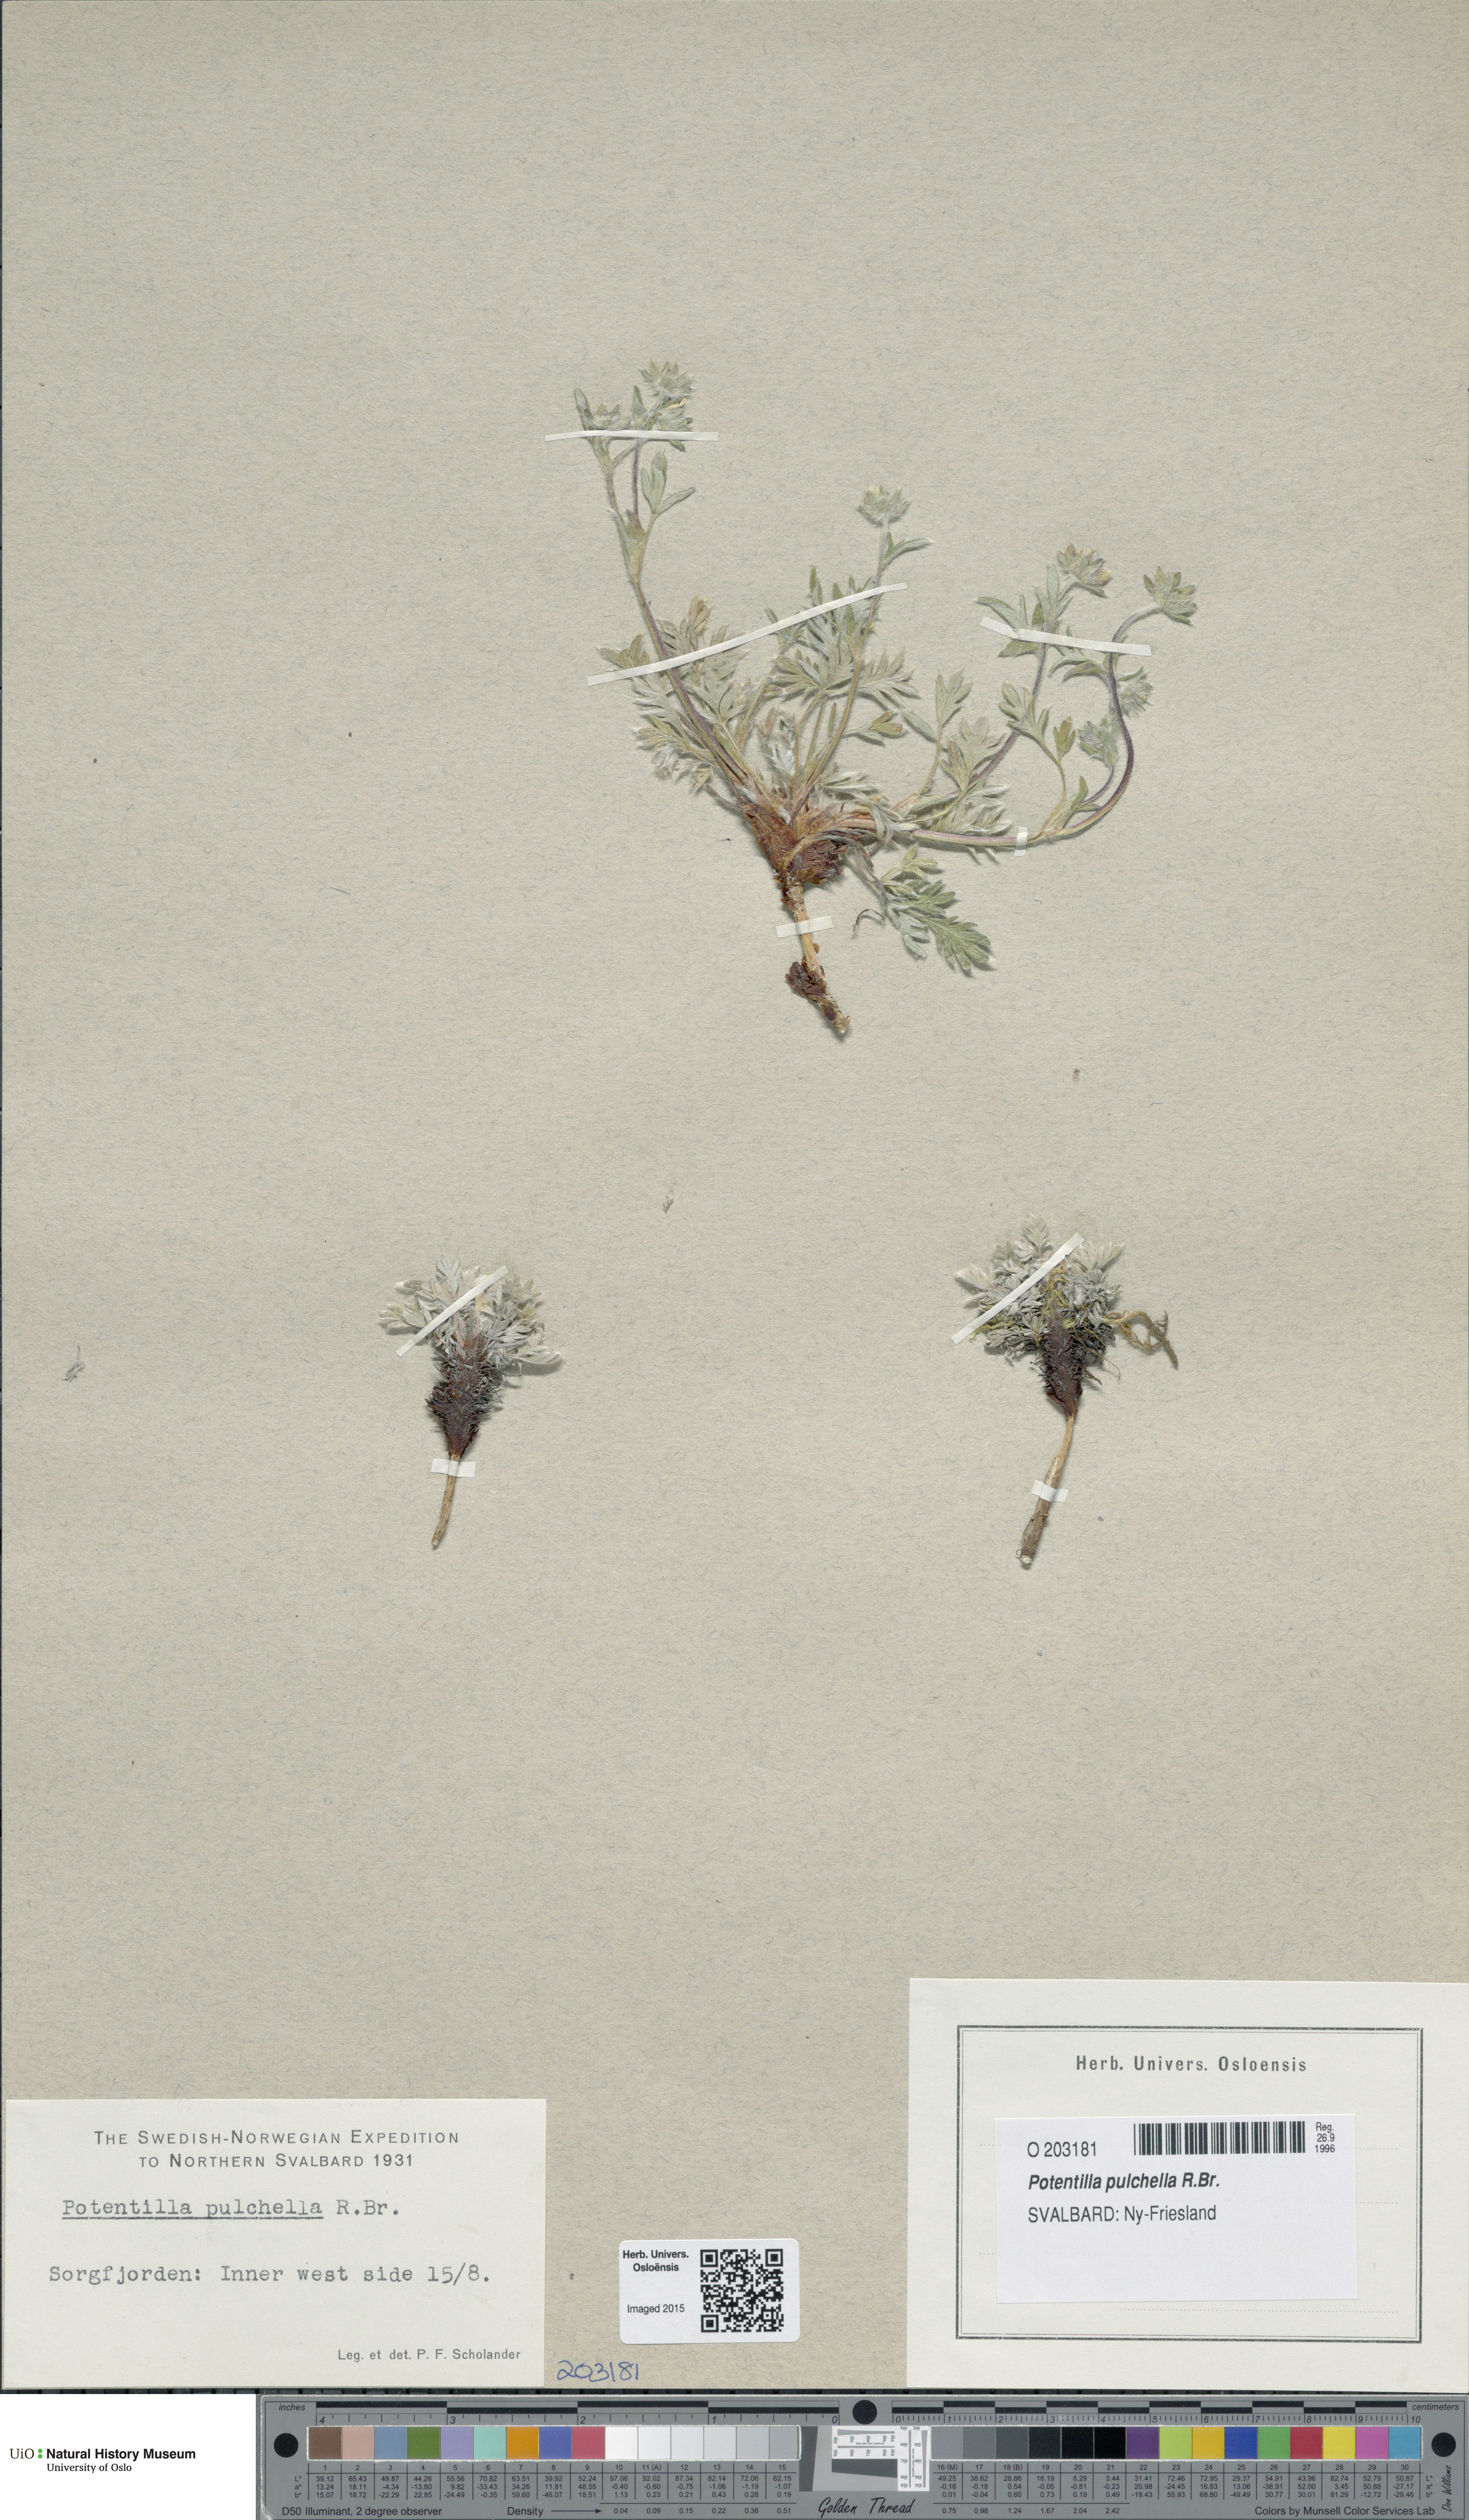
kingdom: Plantae
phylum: Tracheophyta
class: Magnoliopsida
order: Rosales
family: Rosaceae
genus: Potentilla
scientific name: Potentilla pulchella
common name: Pretty cinquefoil
